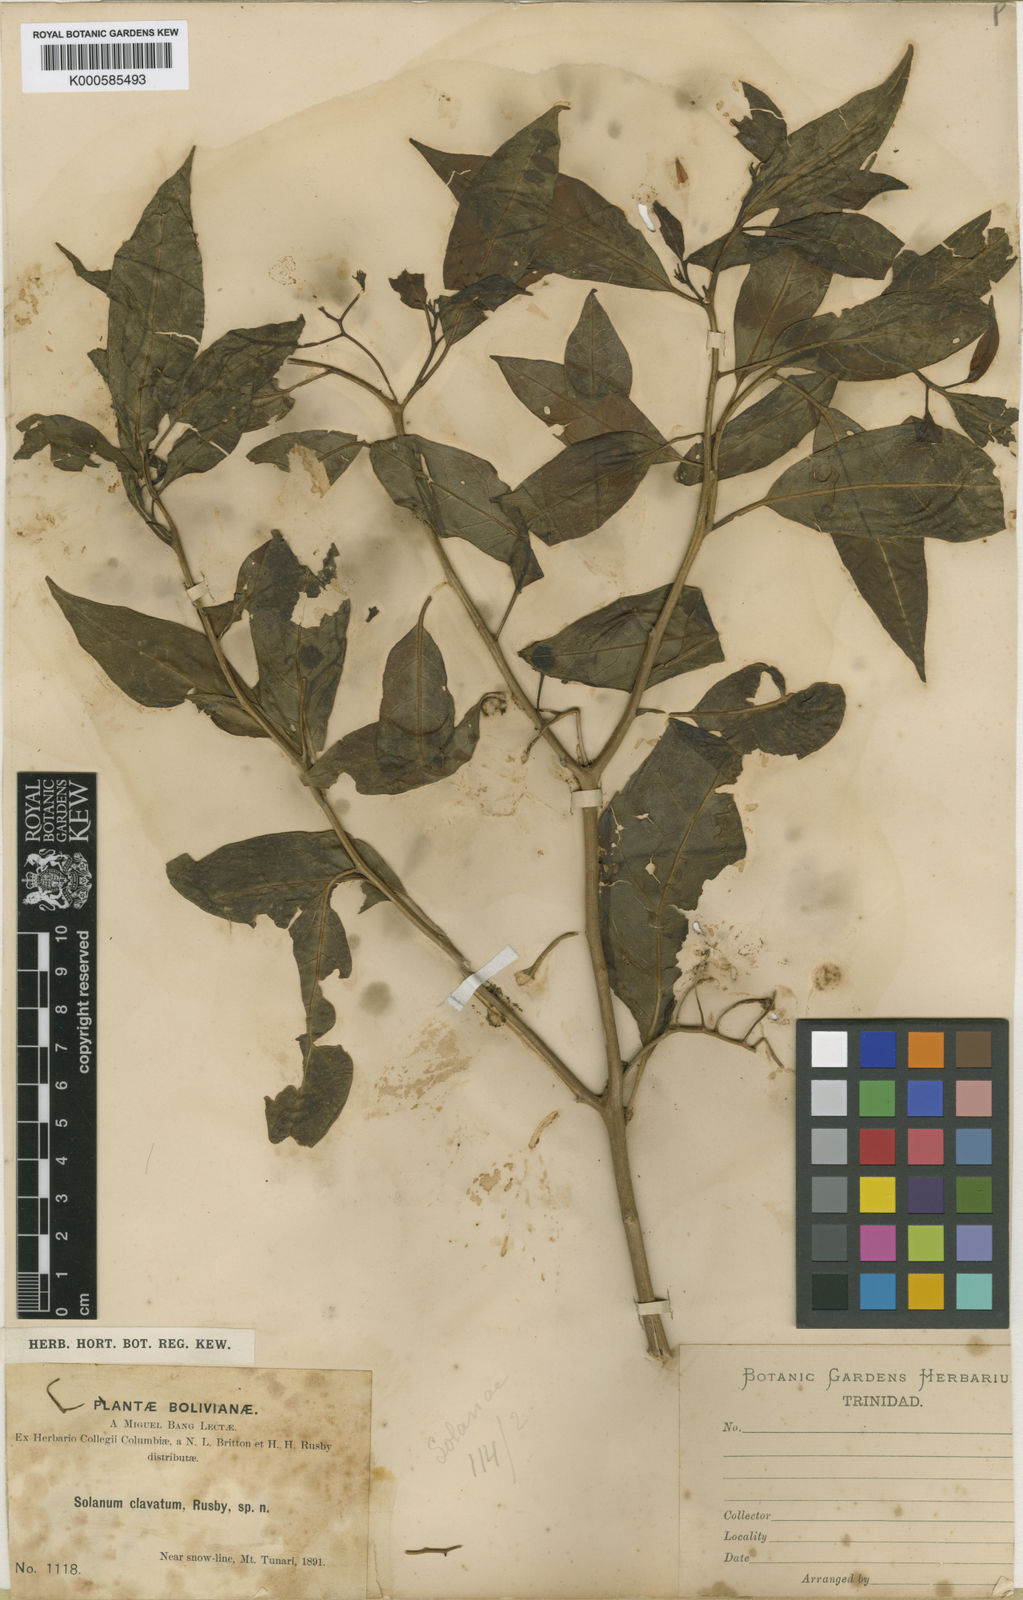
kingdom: Plantae
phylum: Tracheophyta
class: Magnoliopsida
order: Solanales
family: Solanaceae
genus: Solanum
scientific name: Solanum aligerum
